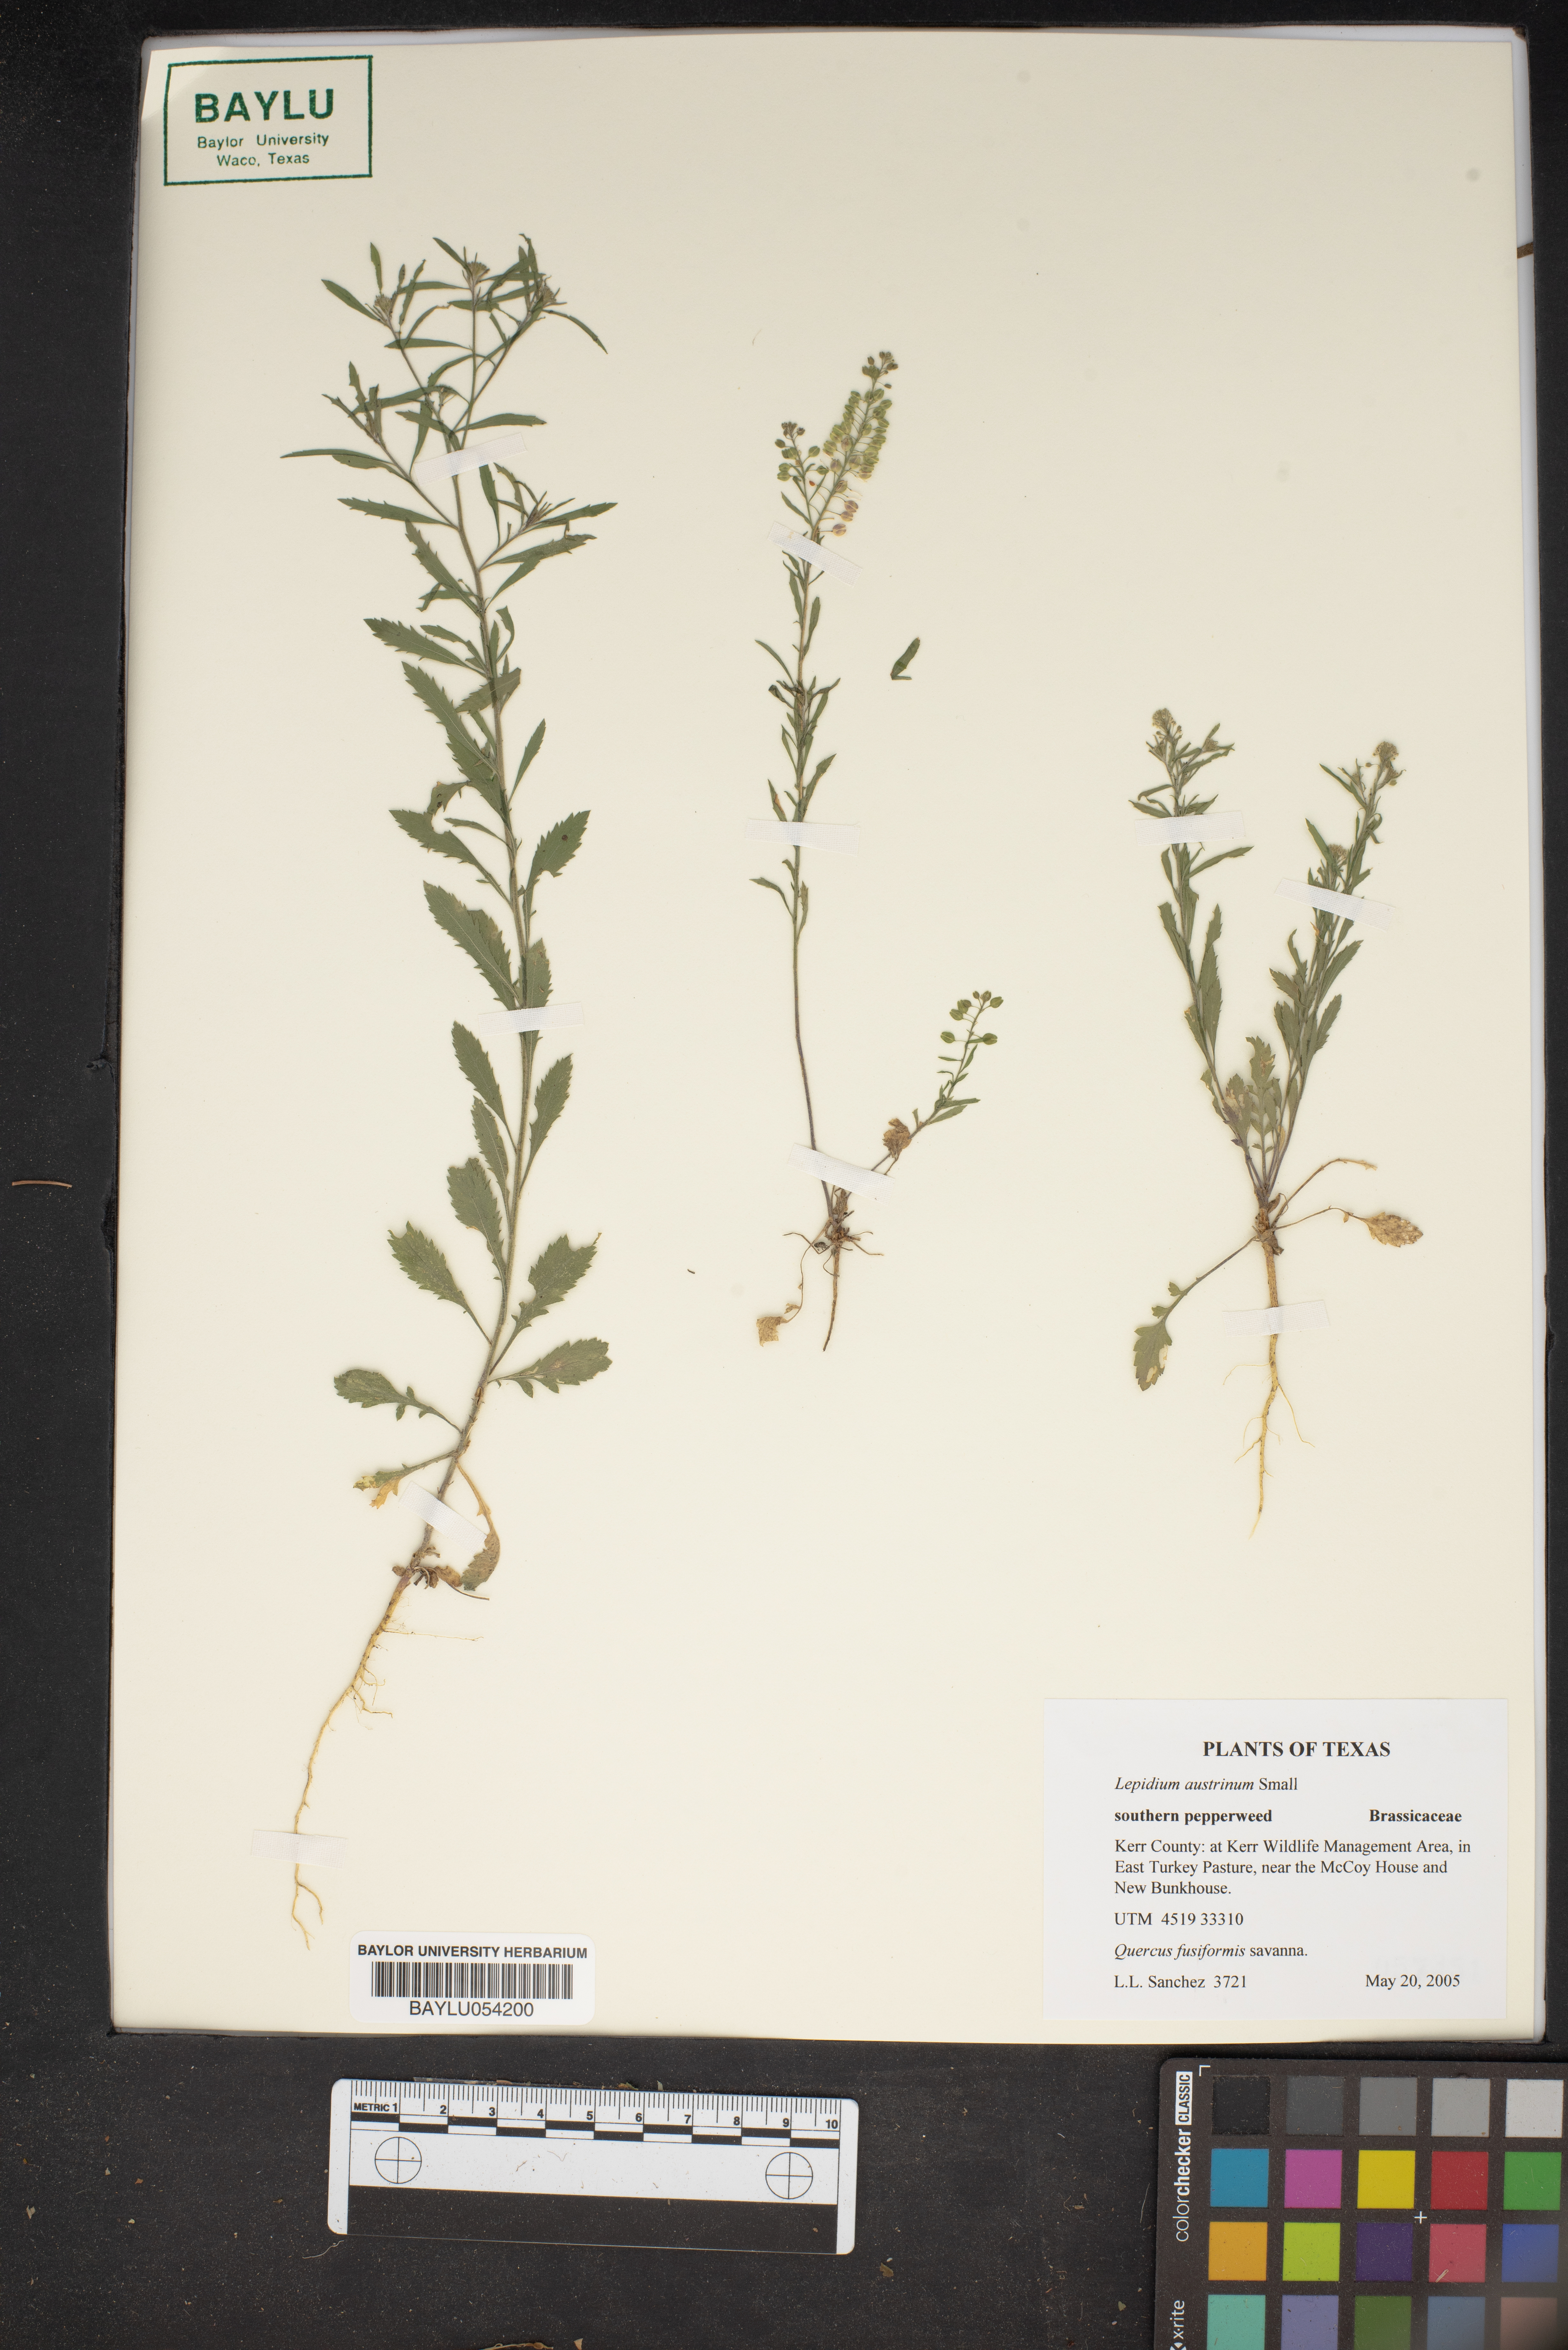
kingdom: Plantae
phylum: Tracheophyta
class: Magnoliopsida
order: Brassicales
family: Brassicaceae
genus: Lepidium
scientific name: Lepidium austrinum
